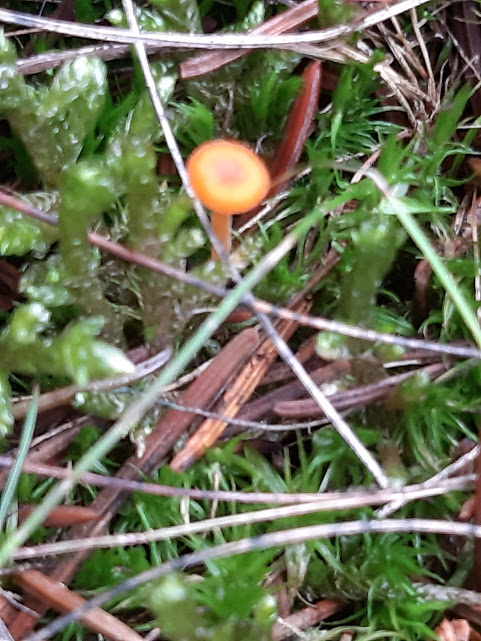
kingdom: Fungi
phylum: Basidiomycota
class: Agaricomycetes
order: Hymenochaetales
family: Rickenellaceae
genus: Rickenella
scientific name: Rickenella fibula
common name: orange mosnavlehat
